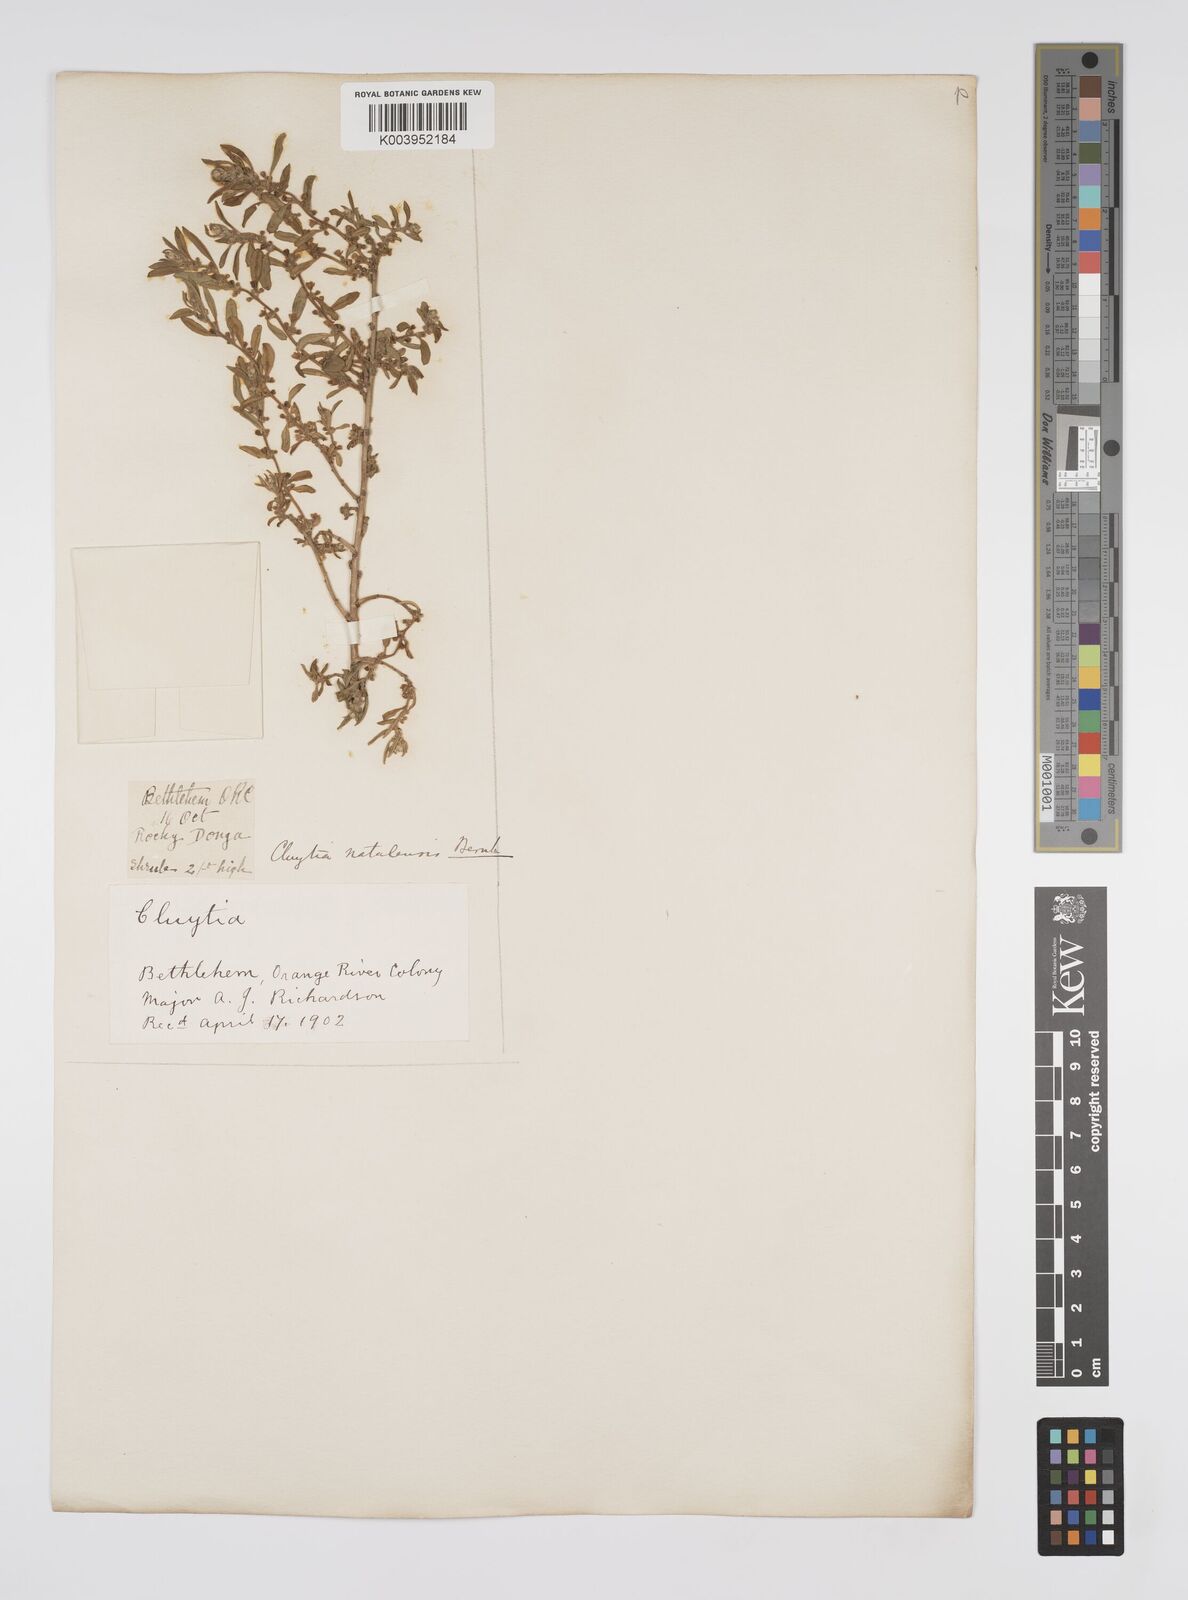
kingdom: Plantae
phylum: Tracheophyta
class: Magnoliopsida
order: Malpighiales
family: Peraceae
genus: Clutia
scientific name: Clutia natalensis
